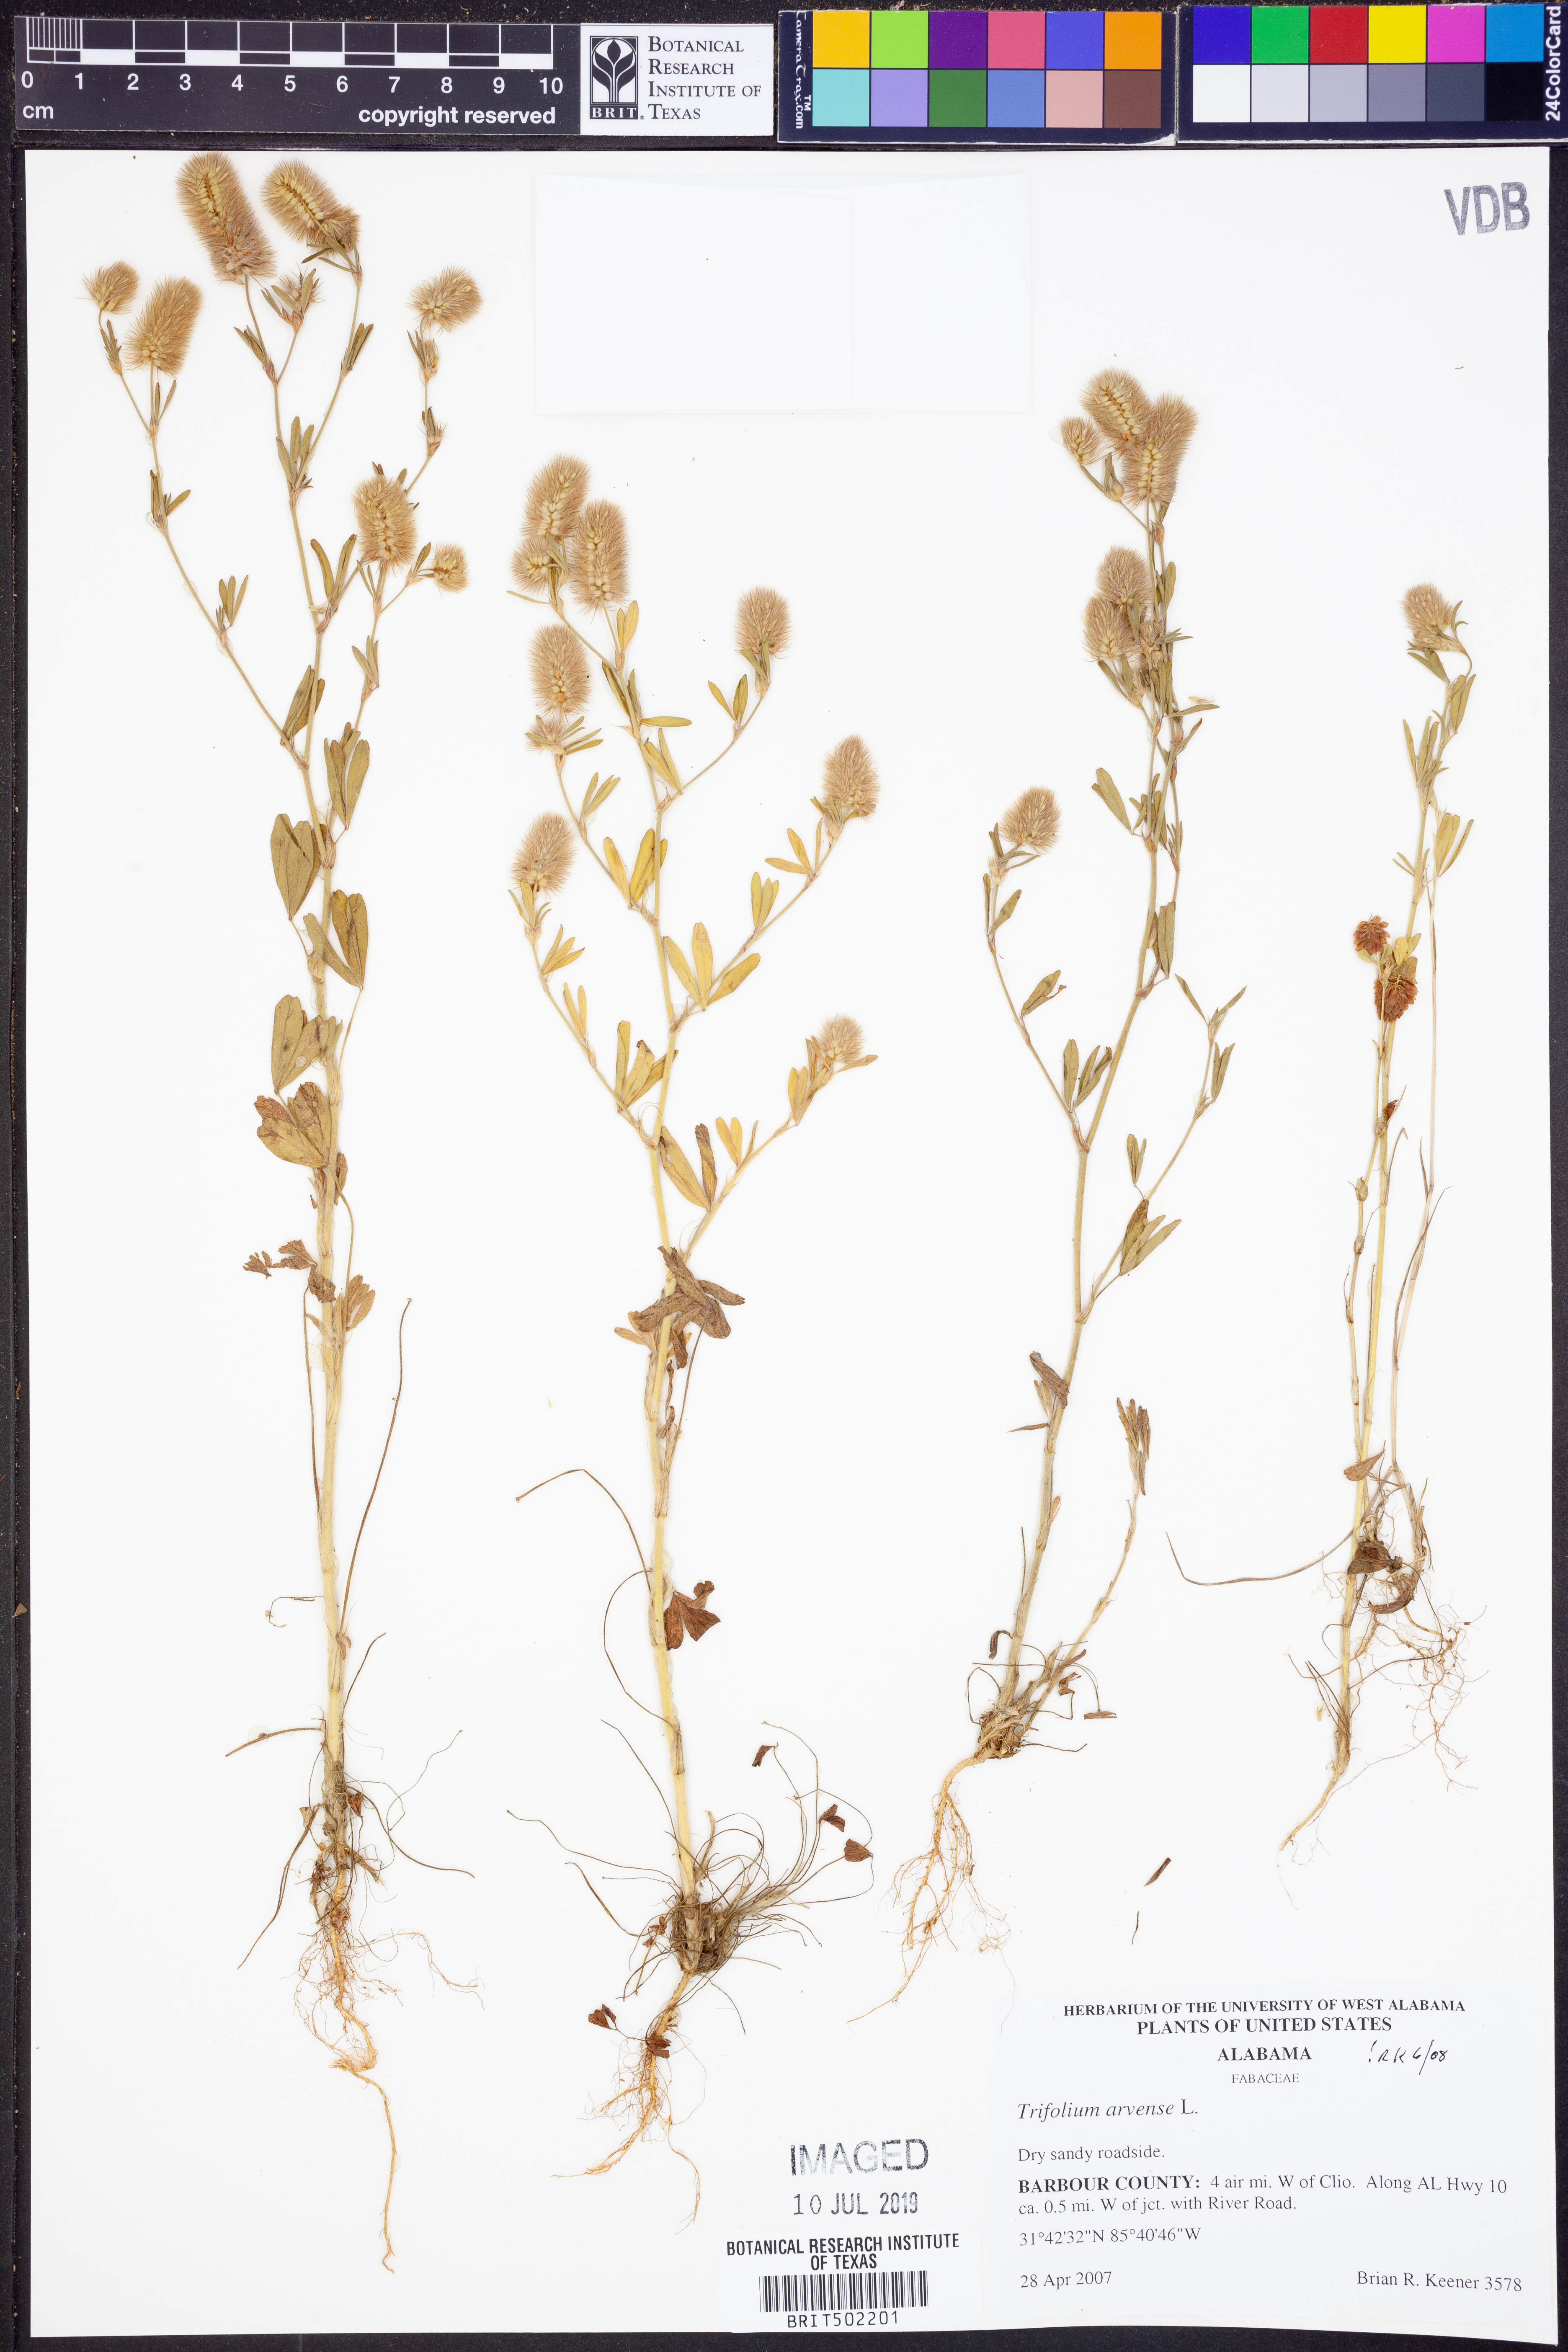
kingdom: Plantae
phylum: Tracheophyta
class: Magnoliopsida
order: Fabales
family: Fabaceae
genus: Trifolium
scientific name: Trifolium arvense
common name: Hare's-foot clover
